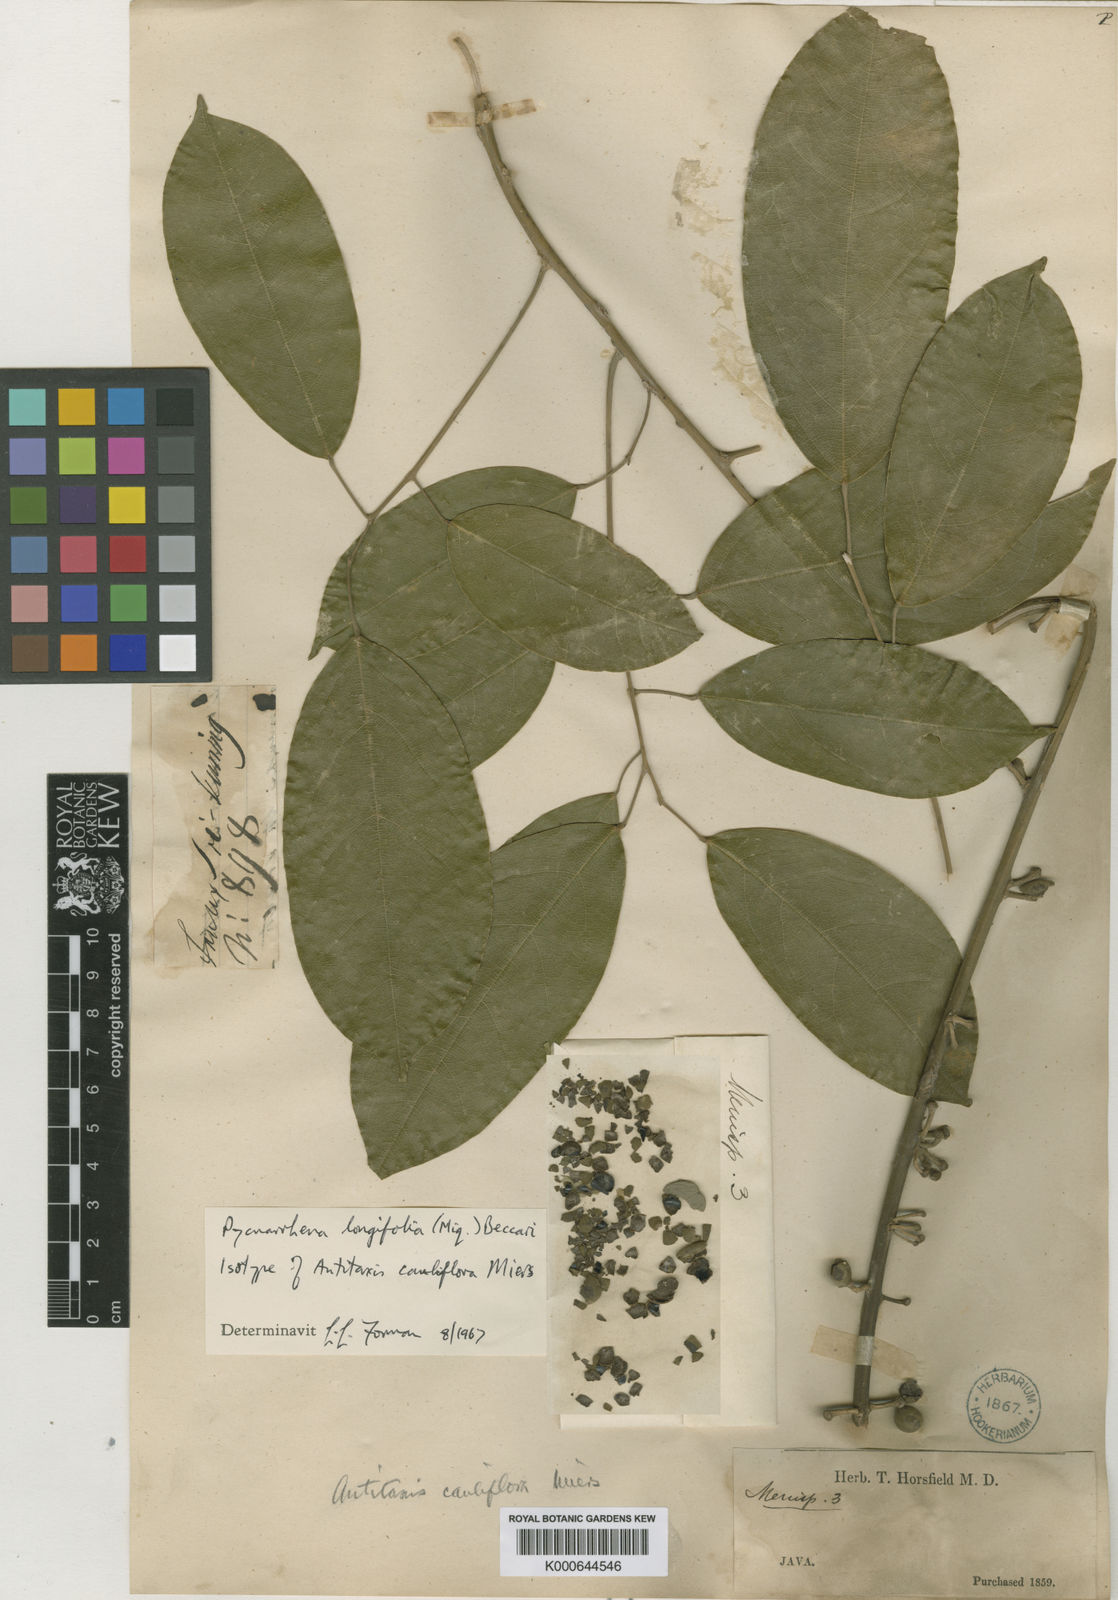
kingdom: Plantae
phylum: Tracheophyta
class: Magnoliopsida
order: Ranunculales
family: Menispermaceae
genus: Pycnarrhena
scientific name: Pycnarrhena longifolia
